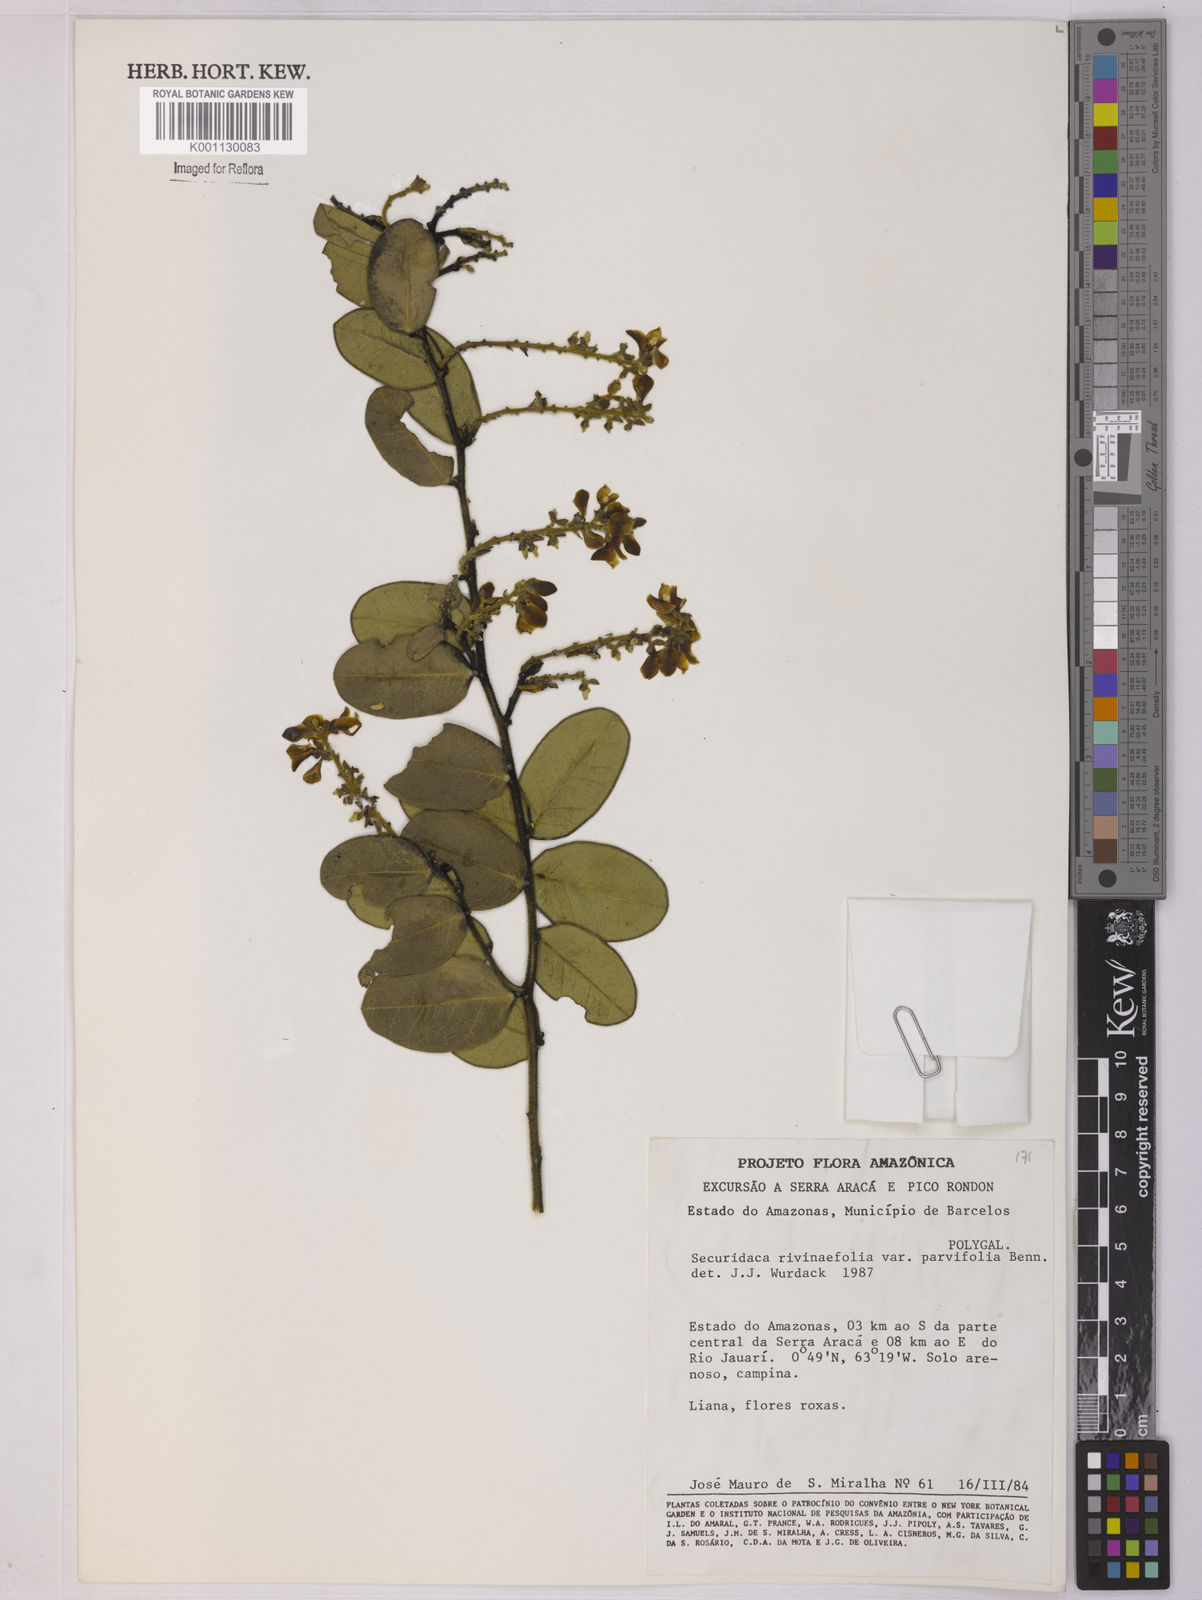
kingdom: Plantae
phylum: Tracheophyta
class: Magnoliopsida
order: Fabales
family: Polygalaceae
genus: Securidaca
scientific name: Securidaca rivinifolia
